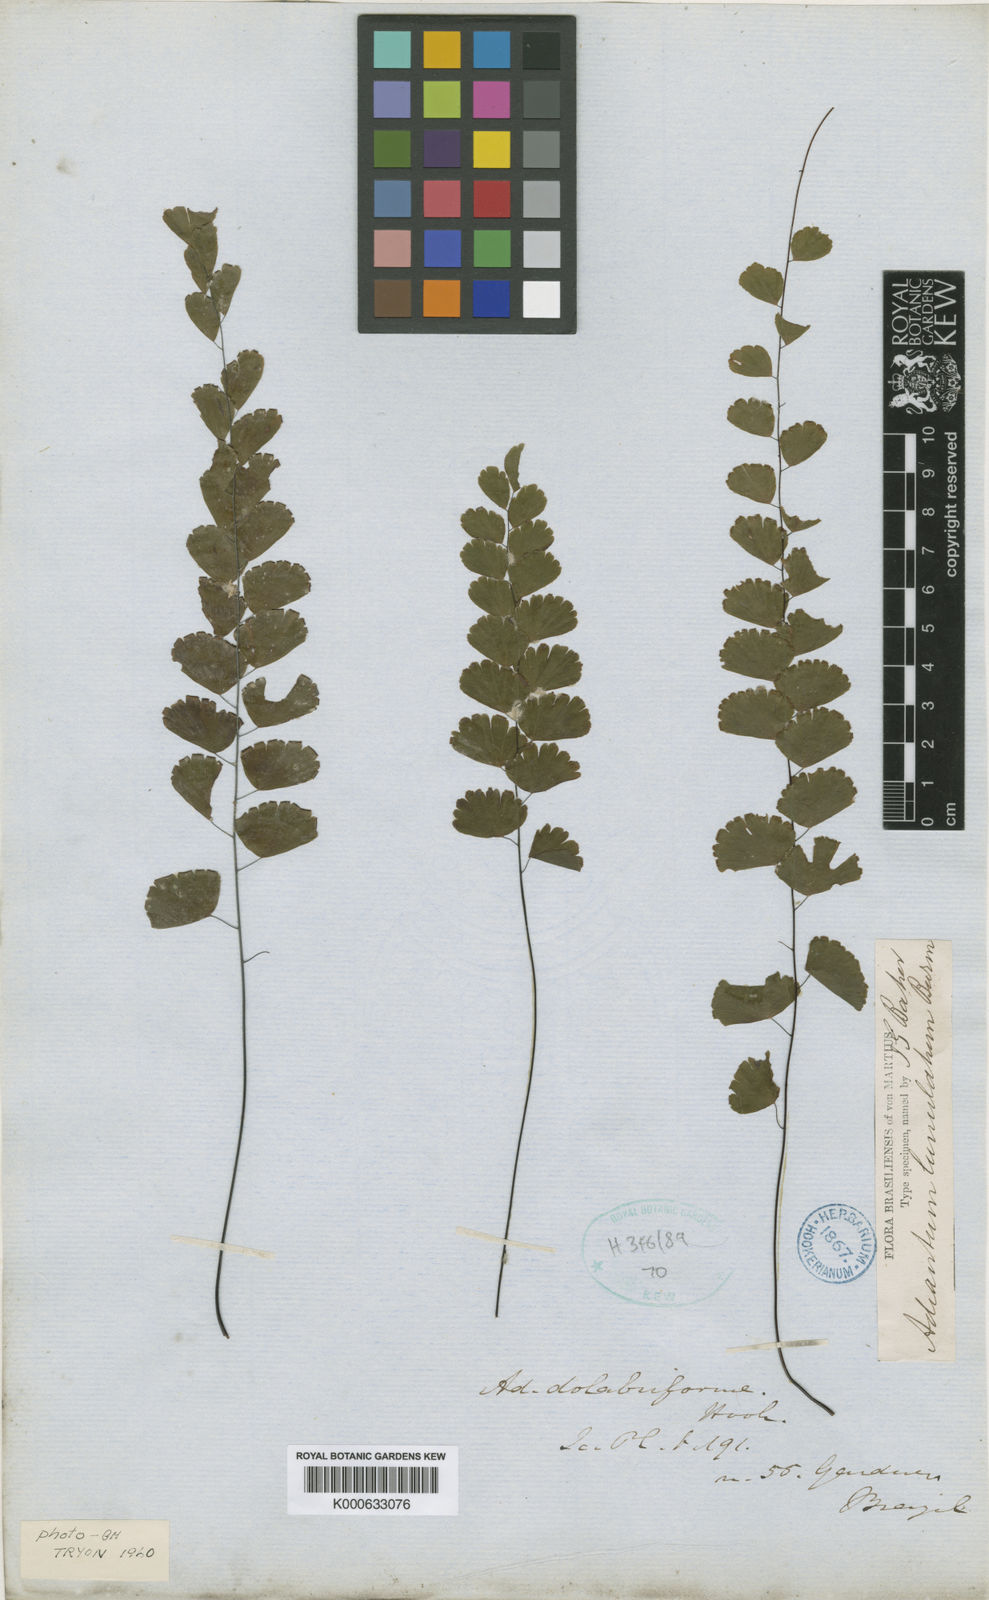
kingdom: Plantae
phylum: Tracheophyta
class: Polypodiopsida
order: Polypodiales
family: Pteridaceae
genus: Adiantum
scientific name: Adiantum deflectens
